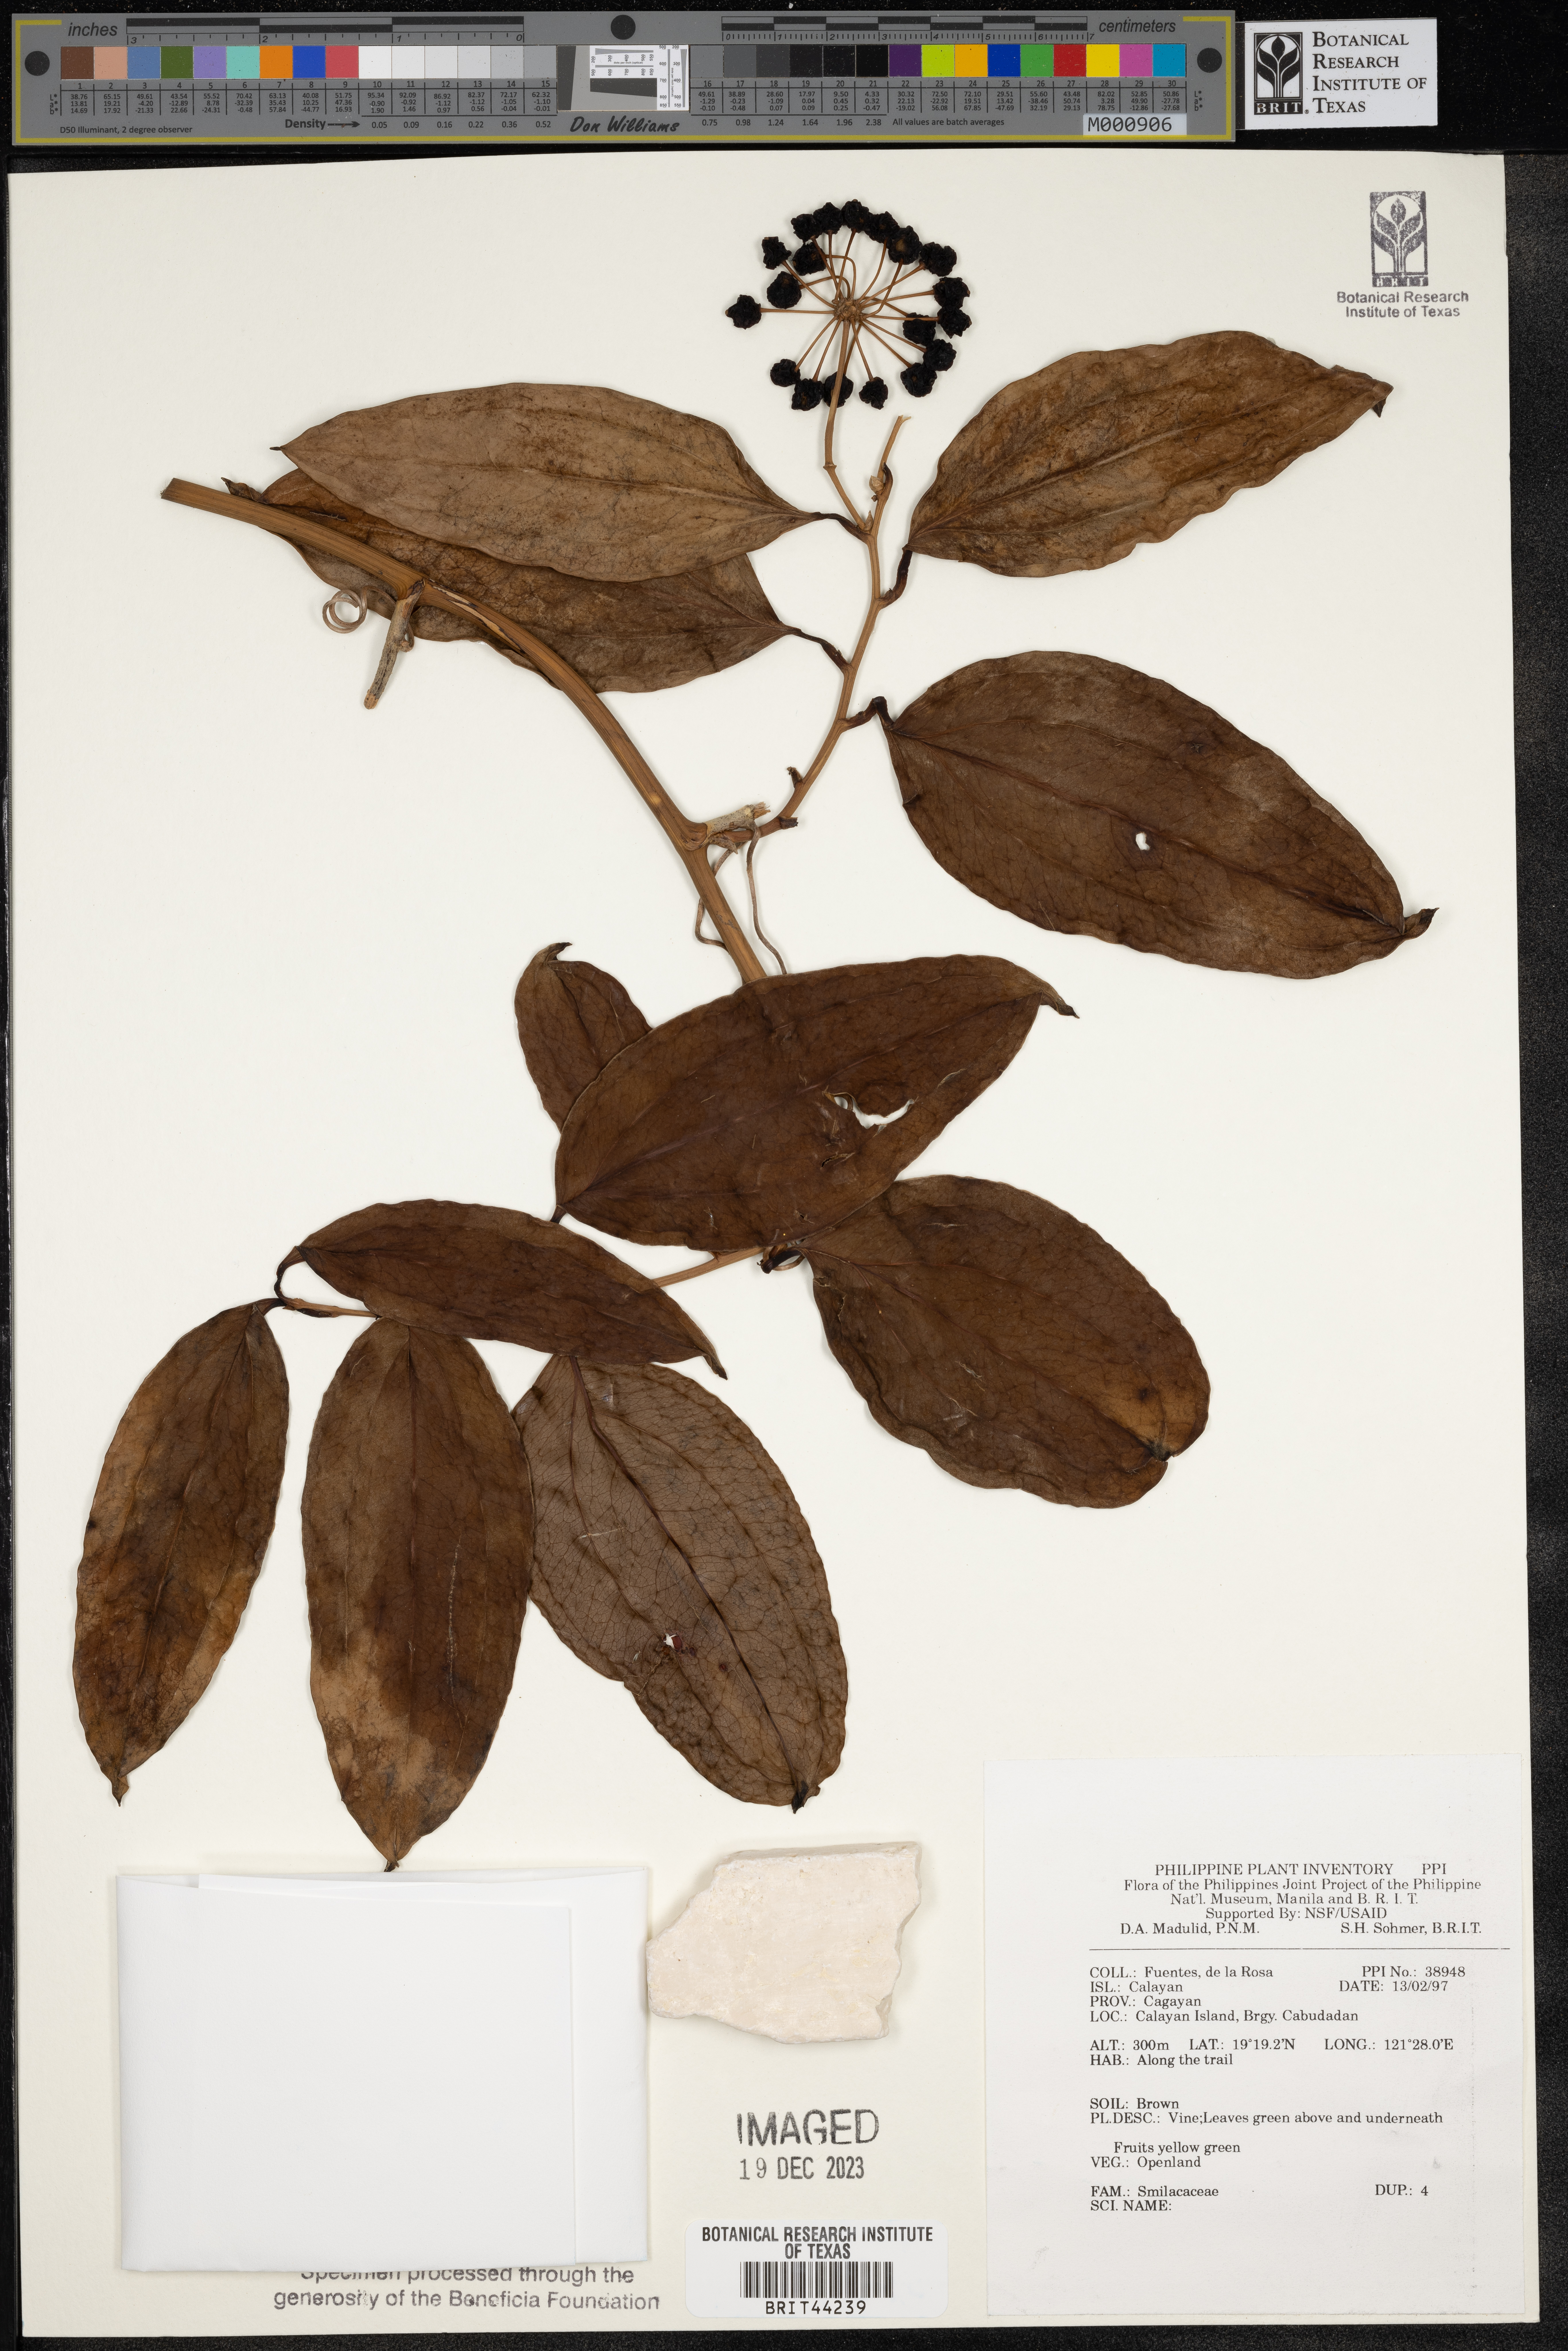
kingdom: Plantae
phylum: Tracheophyta
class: Liliopsida
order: Liliales
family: Smilacaceae
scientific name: Smilacaceae
